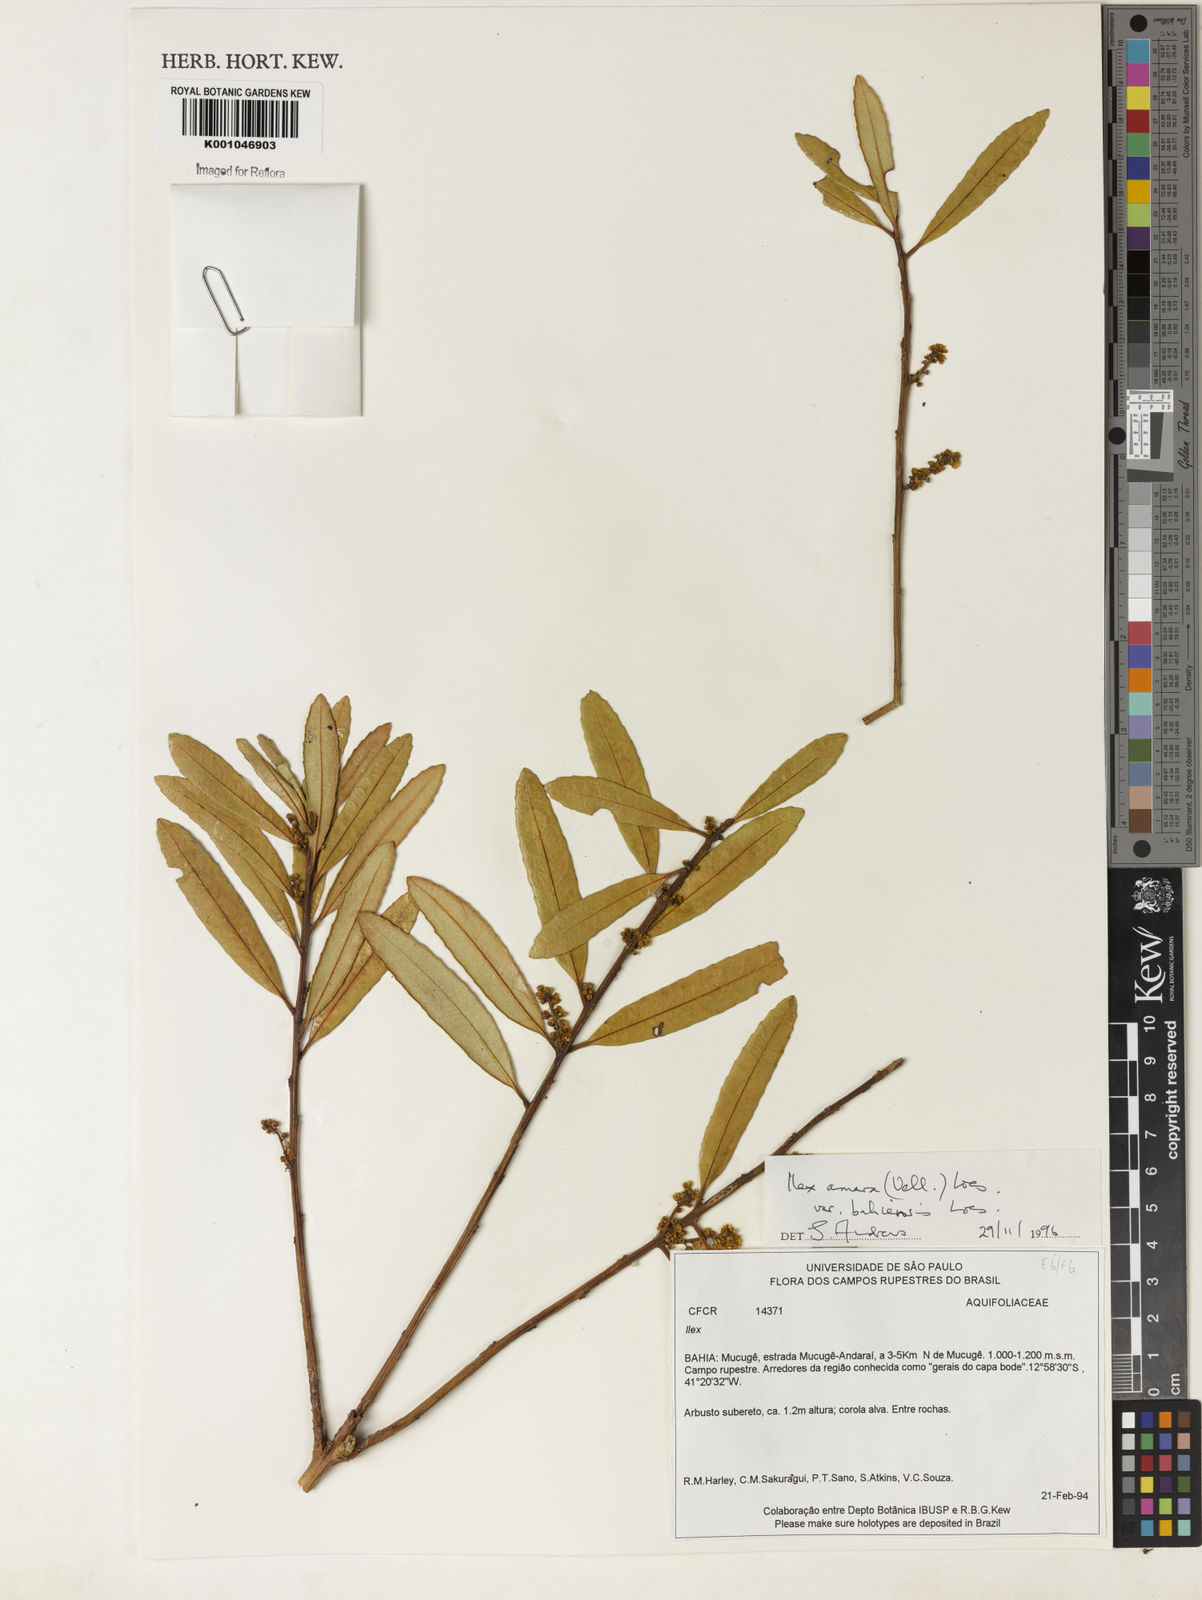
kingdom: Plantae
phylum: Tracheophyta
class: Magnoliopsida
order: Aquifoliales
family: Aquifoliaceae
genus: Ilex
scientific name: Ilex dumosa
